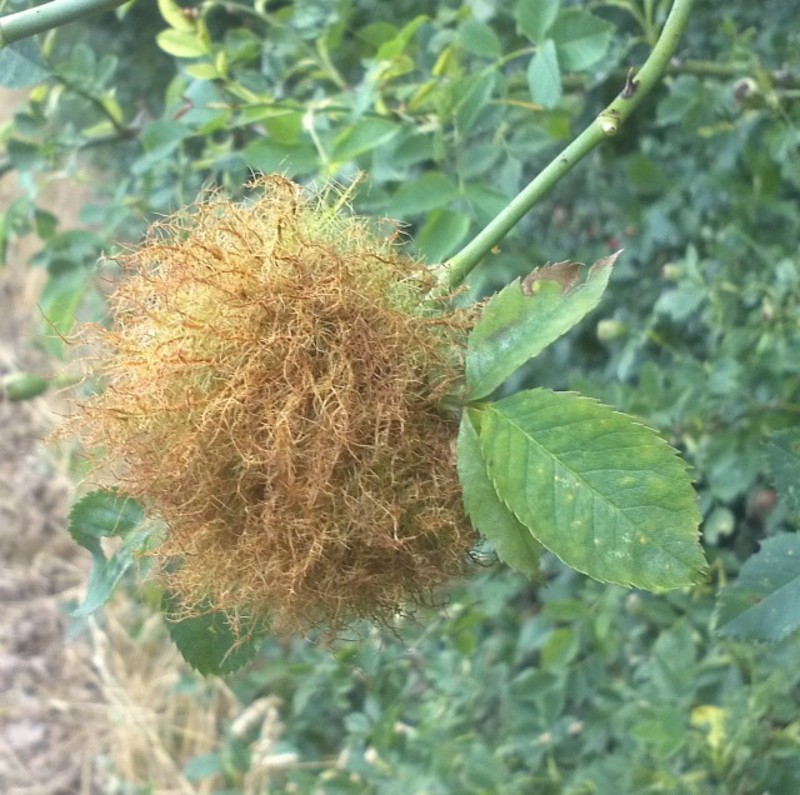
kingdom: Animalia
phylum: Arthropoda
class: Insecta
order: Hymenoptera
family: Cynipidae
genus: Diplolepis
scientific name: Diplolepis rosae
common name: Bedeguar gall
